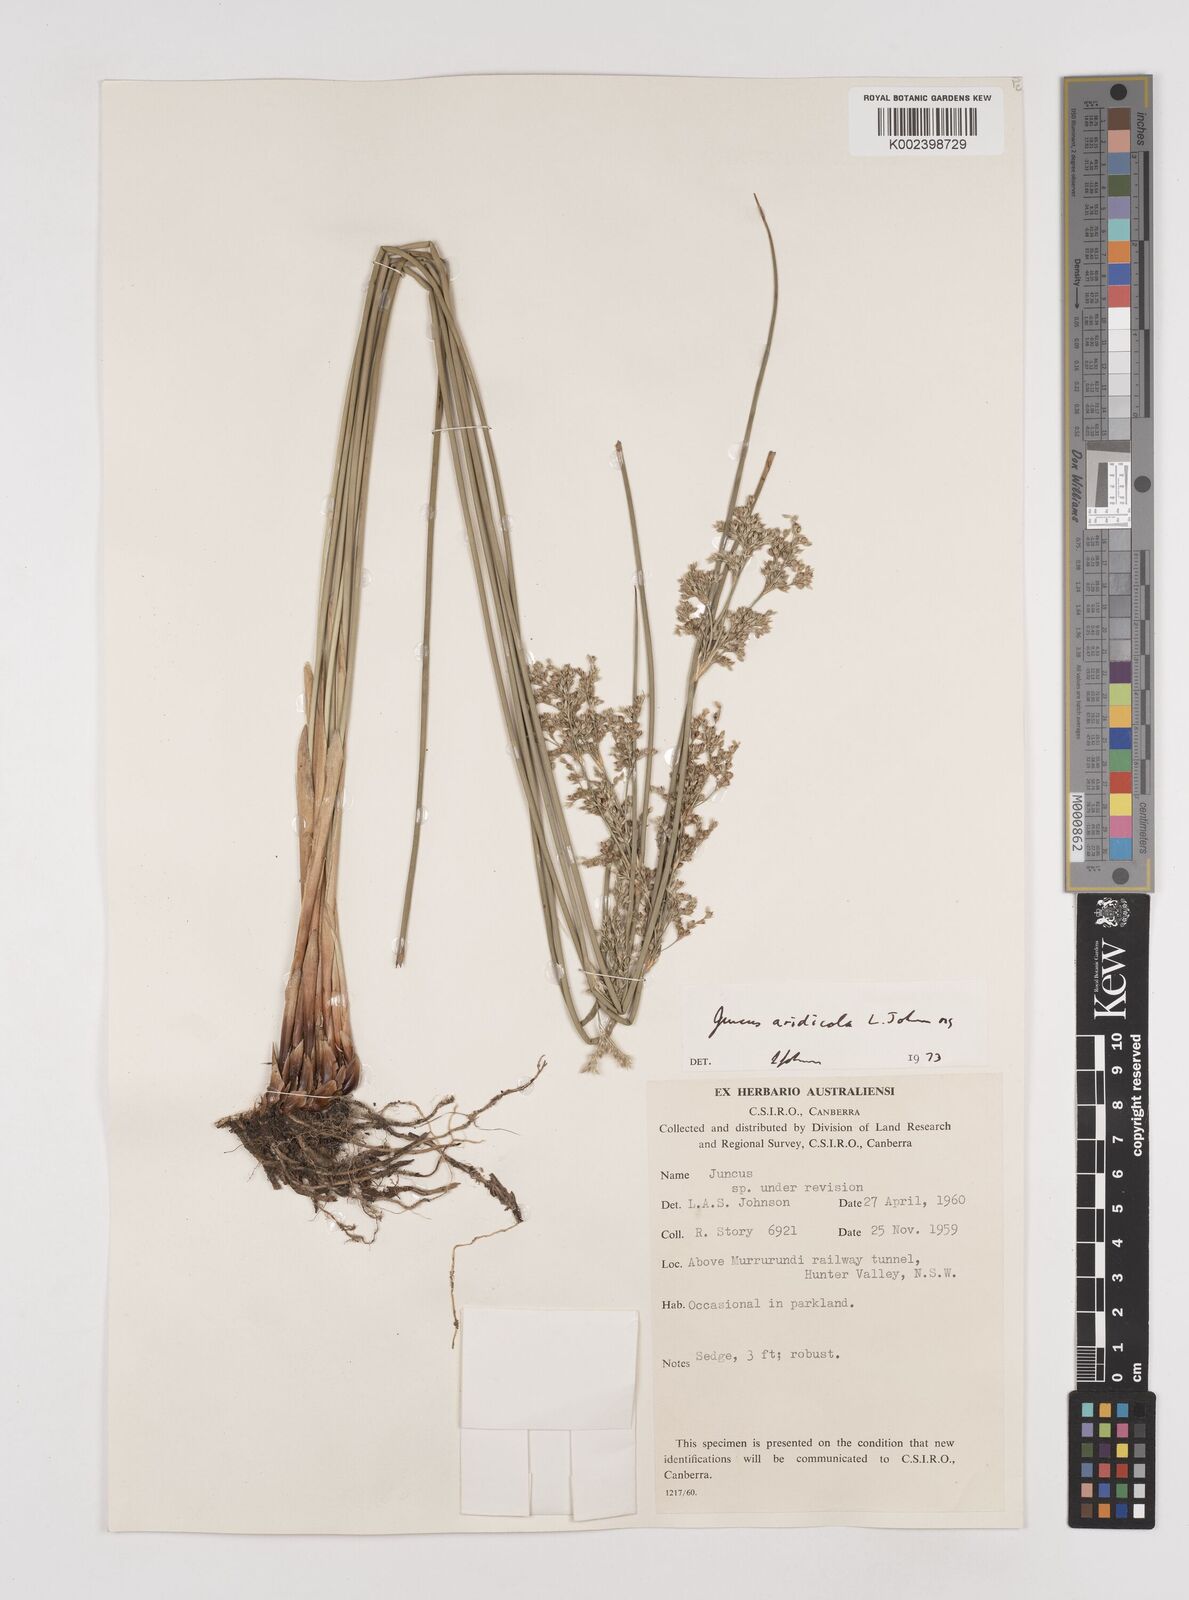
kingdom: Plantae
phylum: Tracheophyta
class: Liliopsida
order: Poales
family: Juncaceae
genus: Juncus
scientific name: Juncus aridicola
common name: Tussock rush
